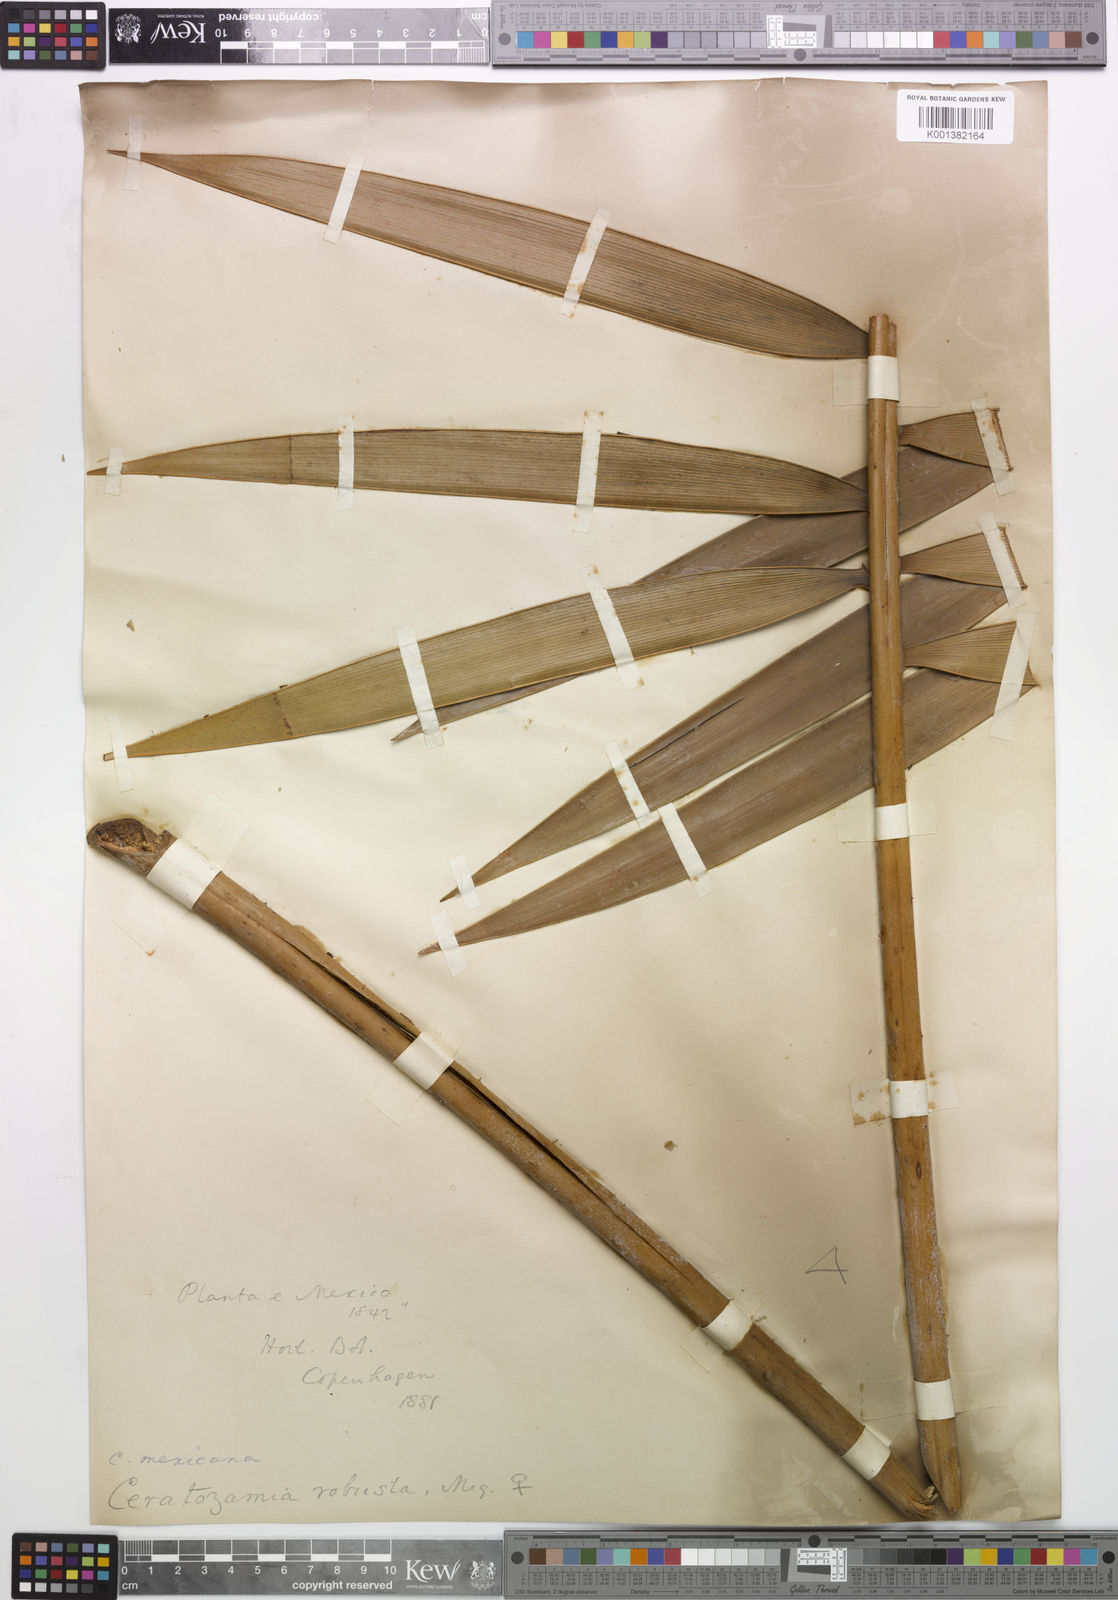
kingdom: Plantae
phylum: Tracheophyta
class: Cycadopsida
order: Cycadales
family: Zamiaceae
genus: Ceratozamia
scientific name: Ceratozamia mexicana
